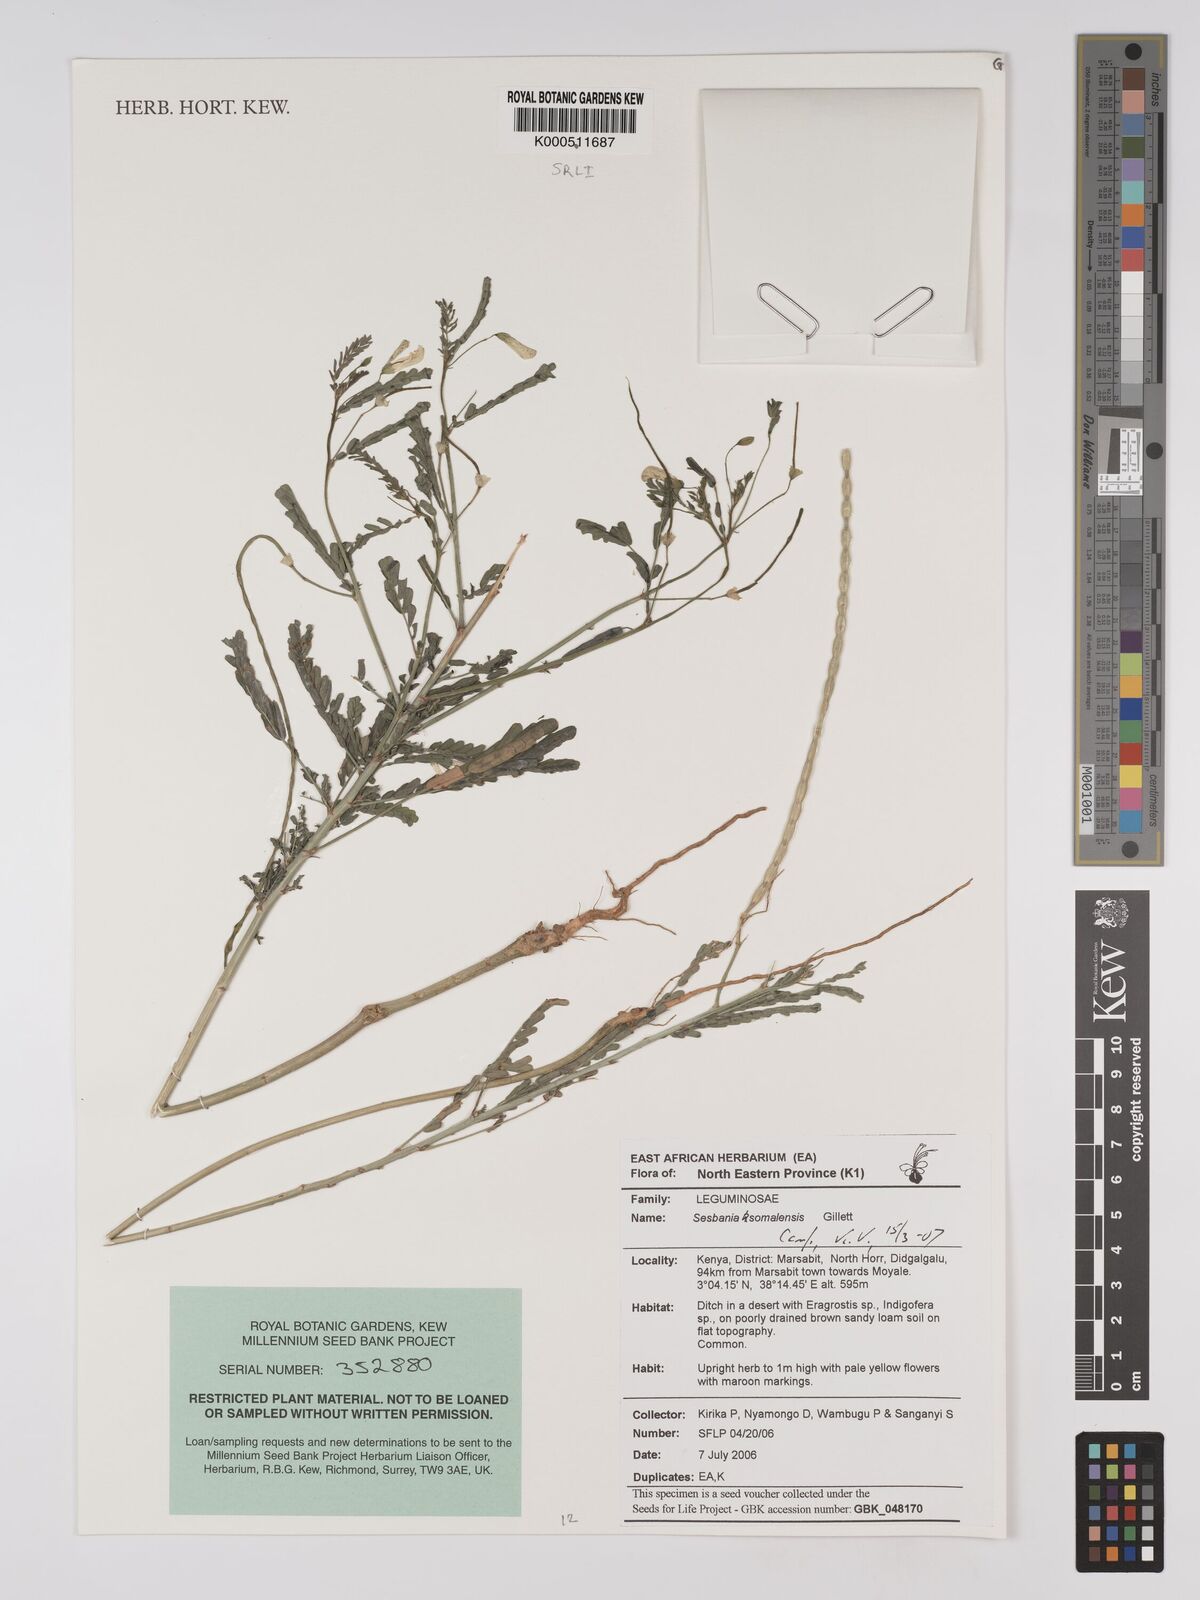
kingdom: Plantae
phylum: Tracheophyta
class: Magnoliopsida
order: Fabales
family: Fabaceae
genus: Sesbania
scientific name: Sesbania somalensis
